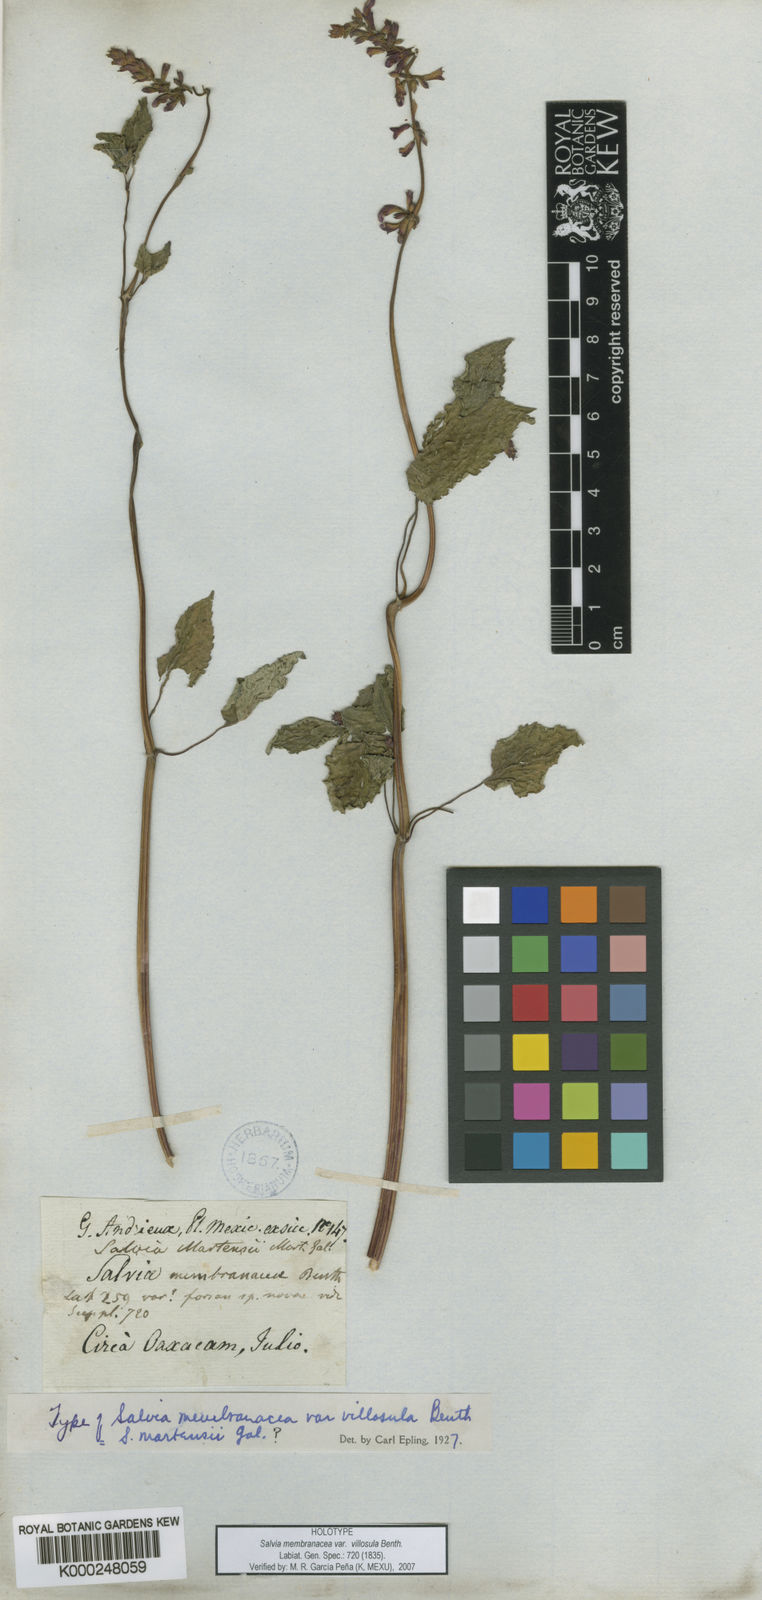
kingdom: Plantae
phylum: Tracheophyta
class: Magnoliopsida
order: Lamiales
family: Lamiaceae
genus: Salvia
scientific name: Salvia
